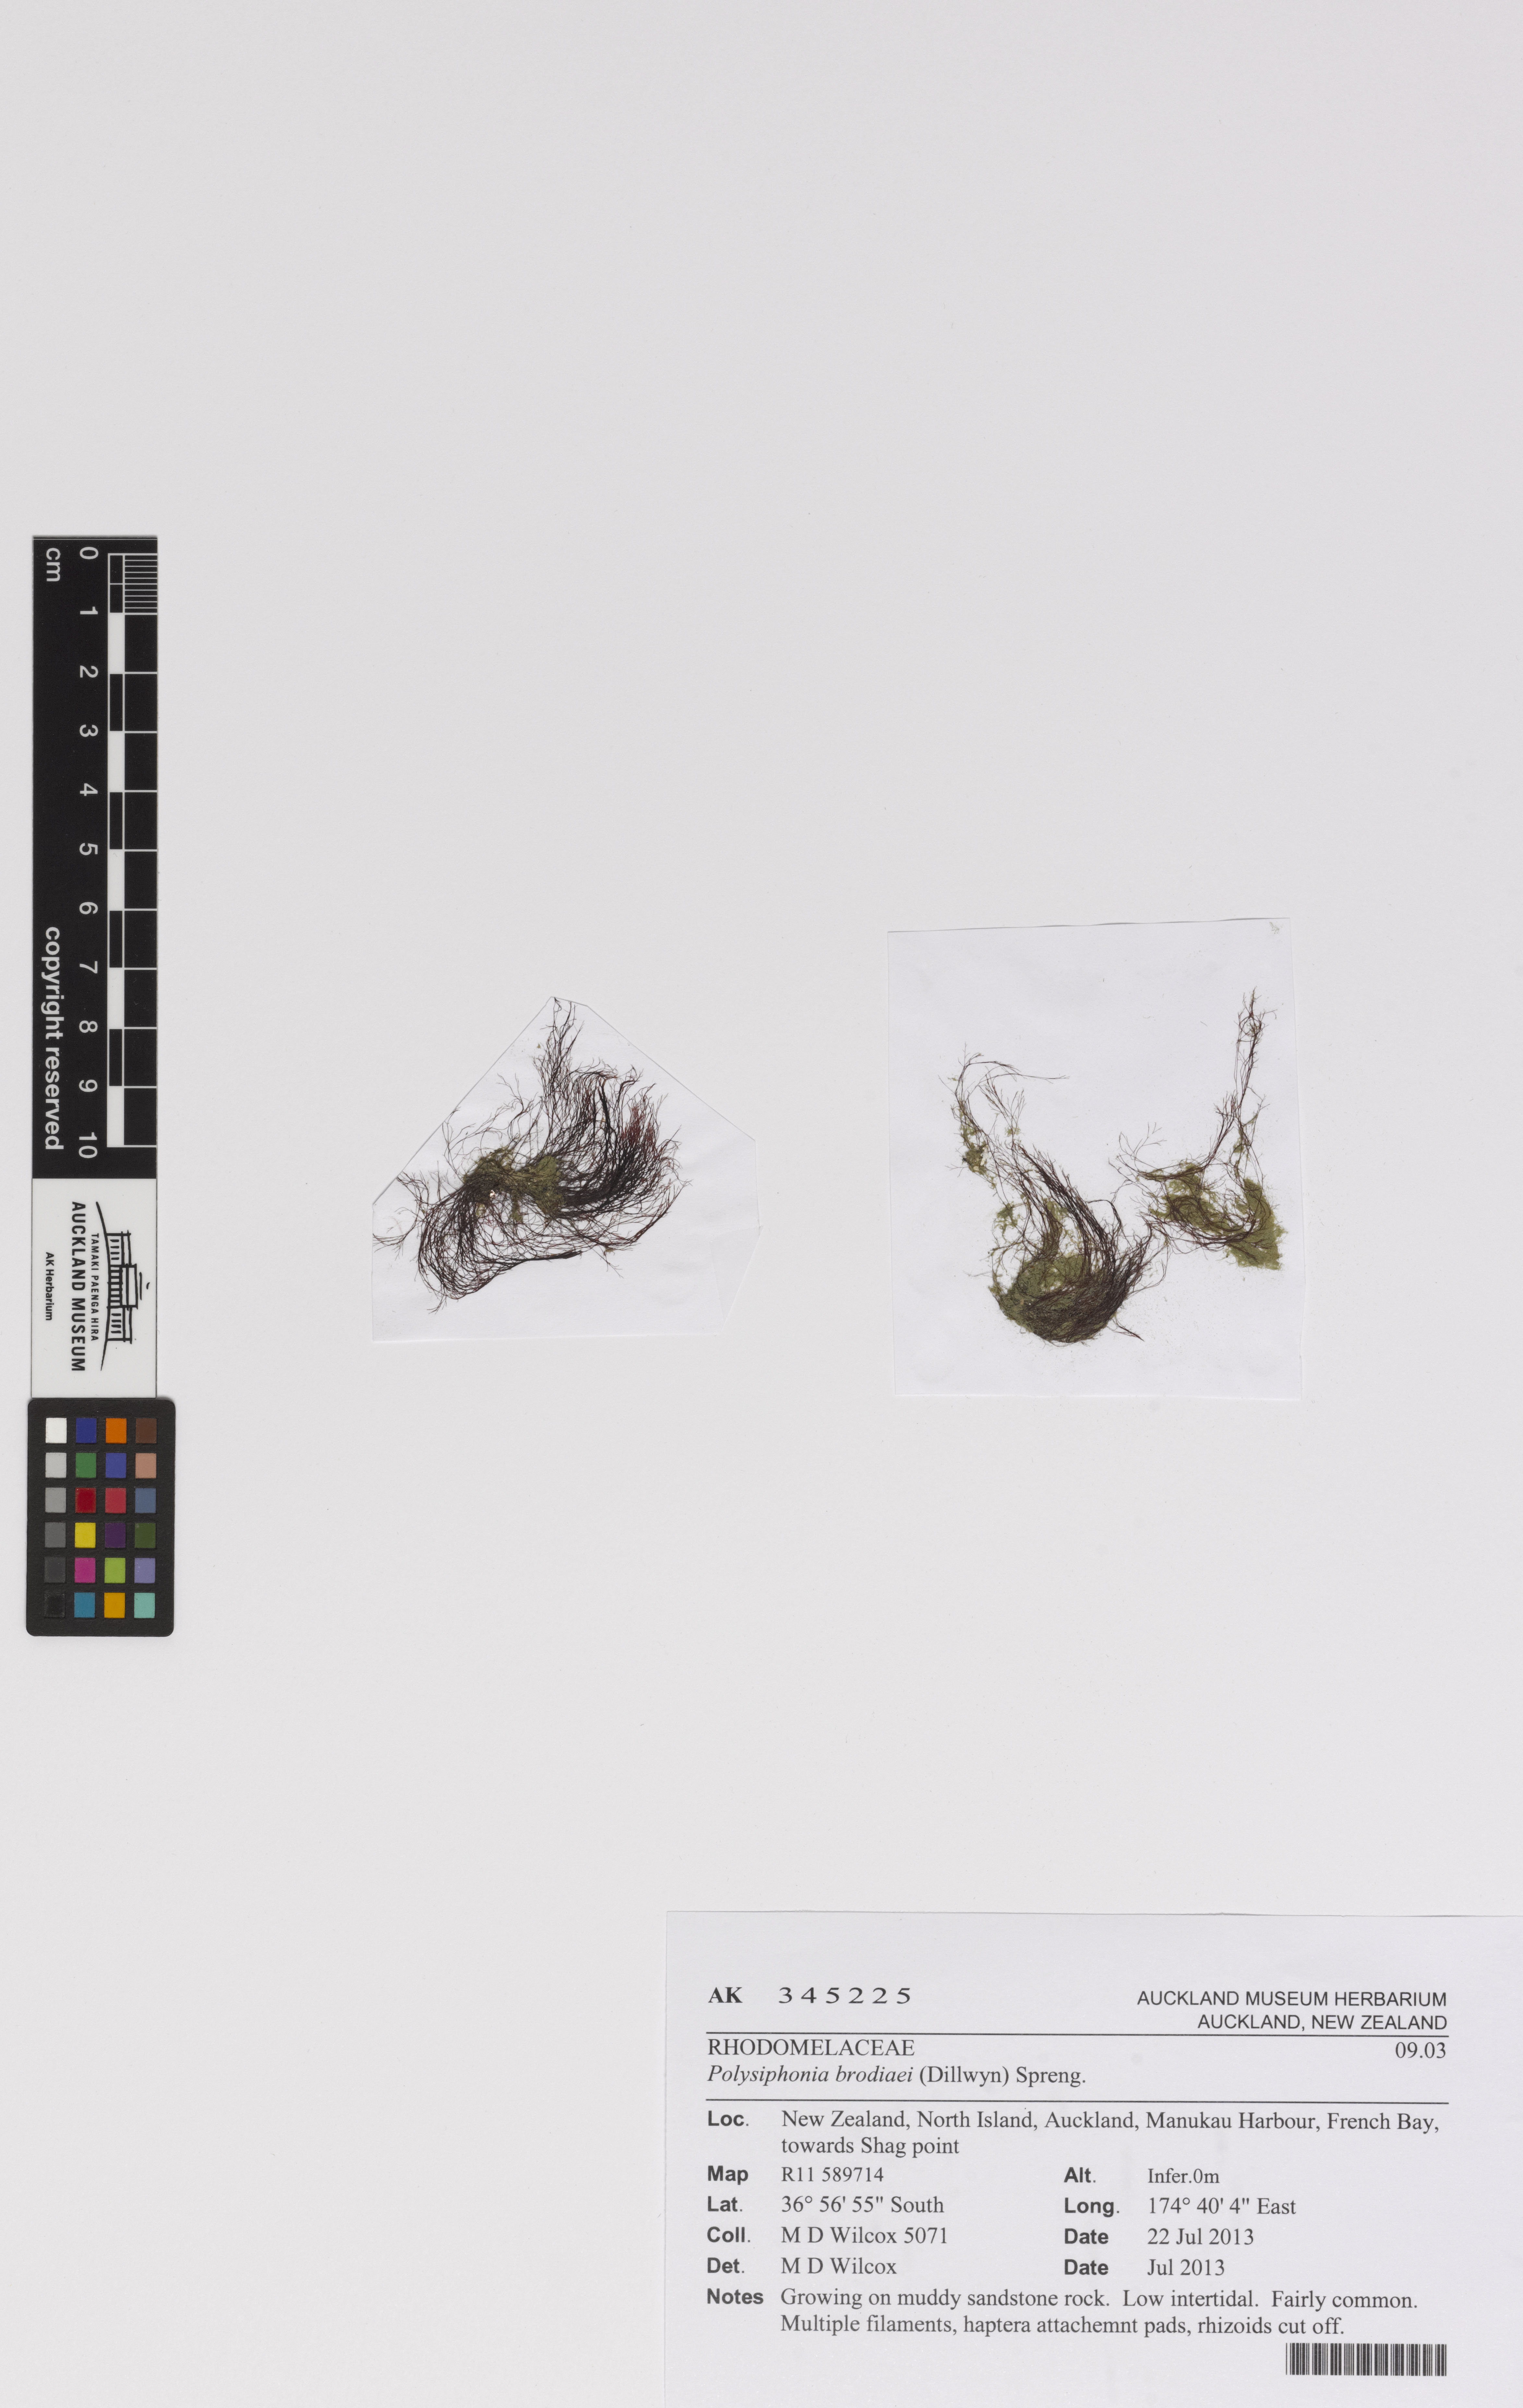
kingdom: Plantae
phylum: Rhodophyta
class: Florideophyceae
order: Ceramiales
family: Rhodomelaceae
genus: Vertebrata
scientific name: Vertebrata isogona
